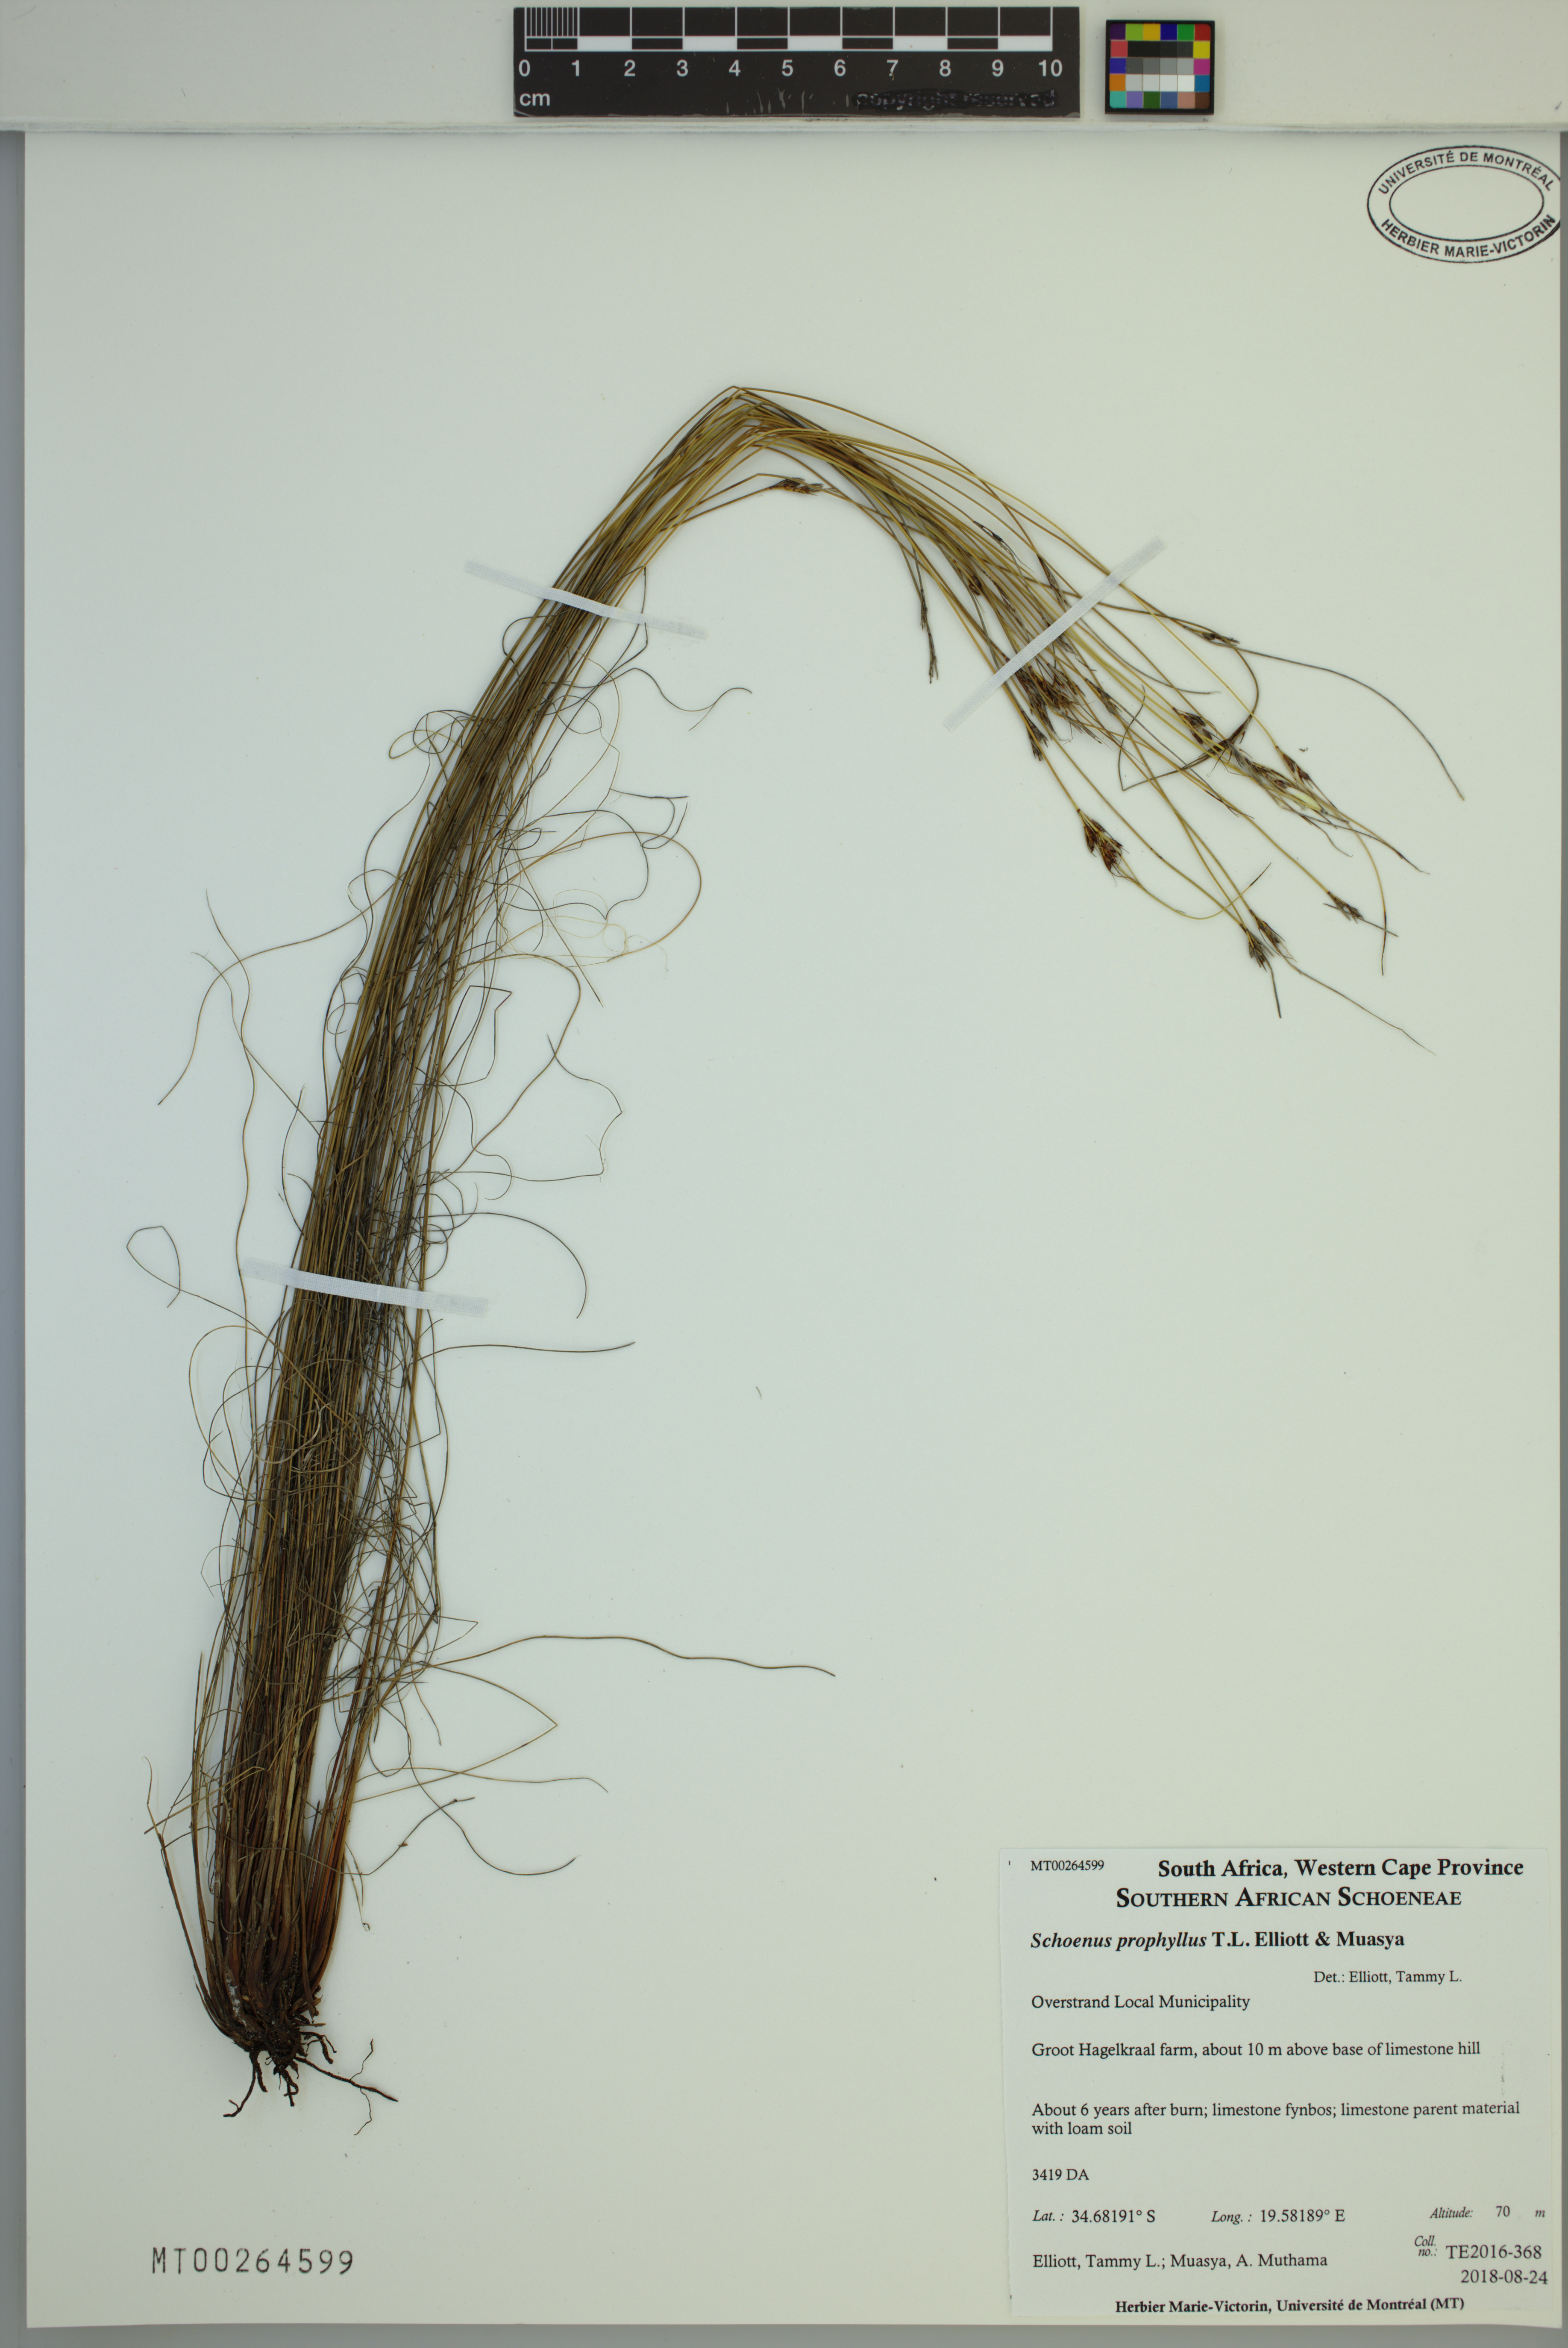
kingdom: Plantae
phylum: Tracheophyta
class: Liliopsida
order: Poales
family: Cyperaceae
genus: Schoenus
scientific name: Schoenus prophyllus
